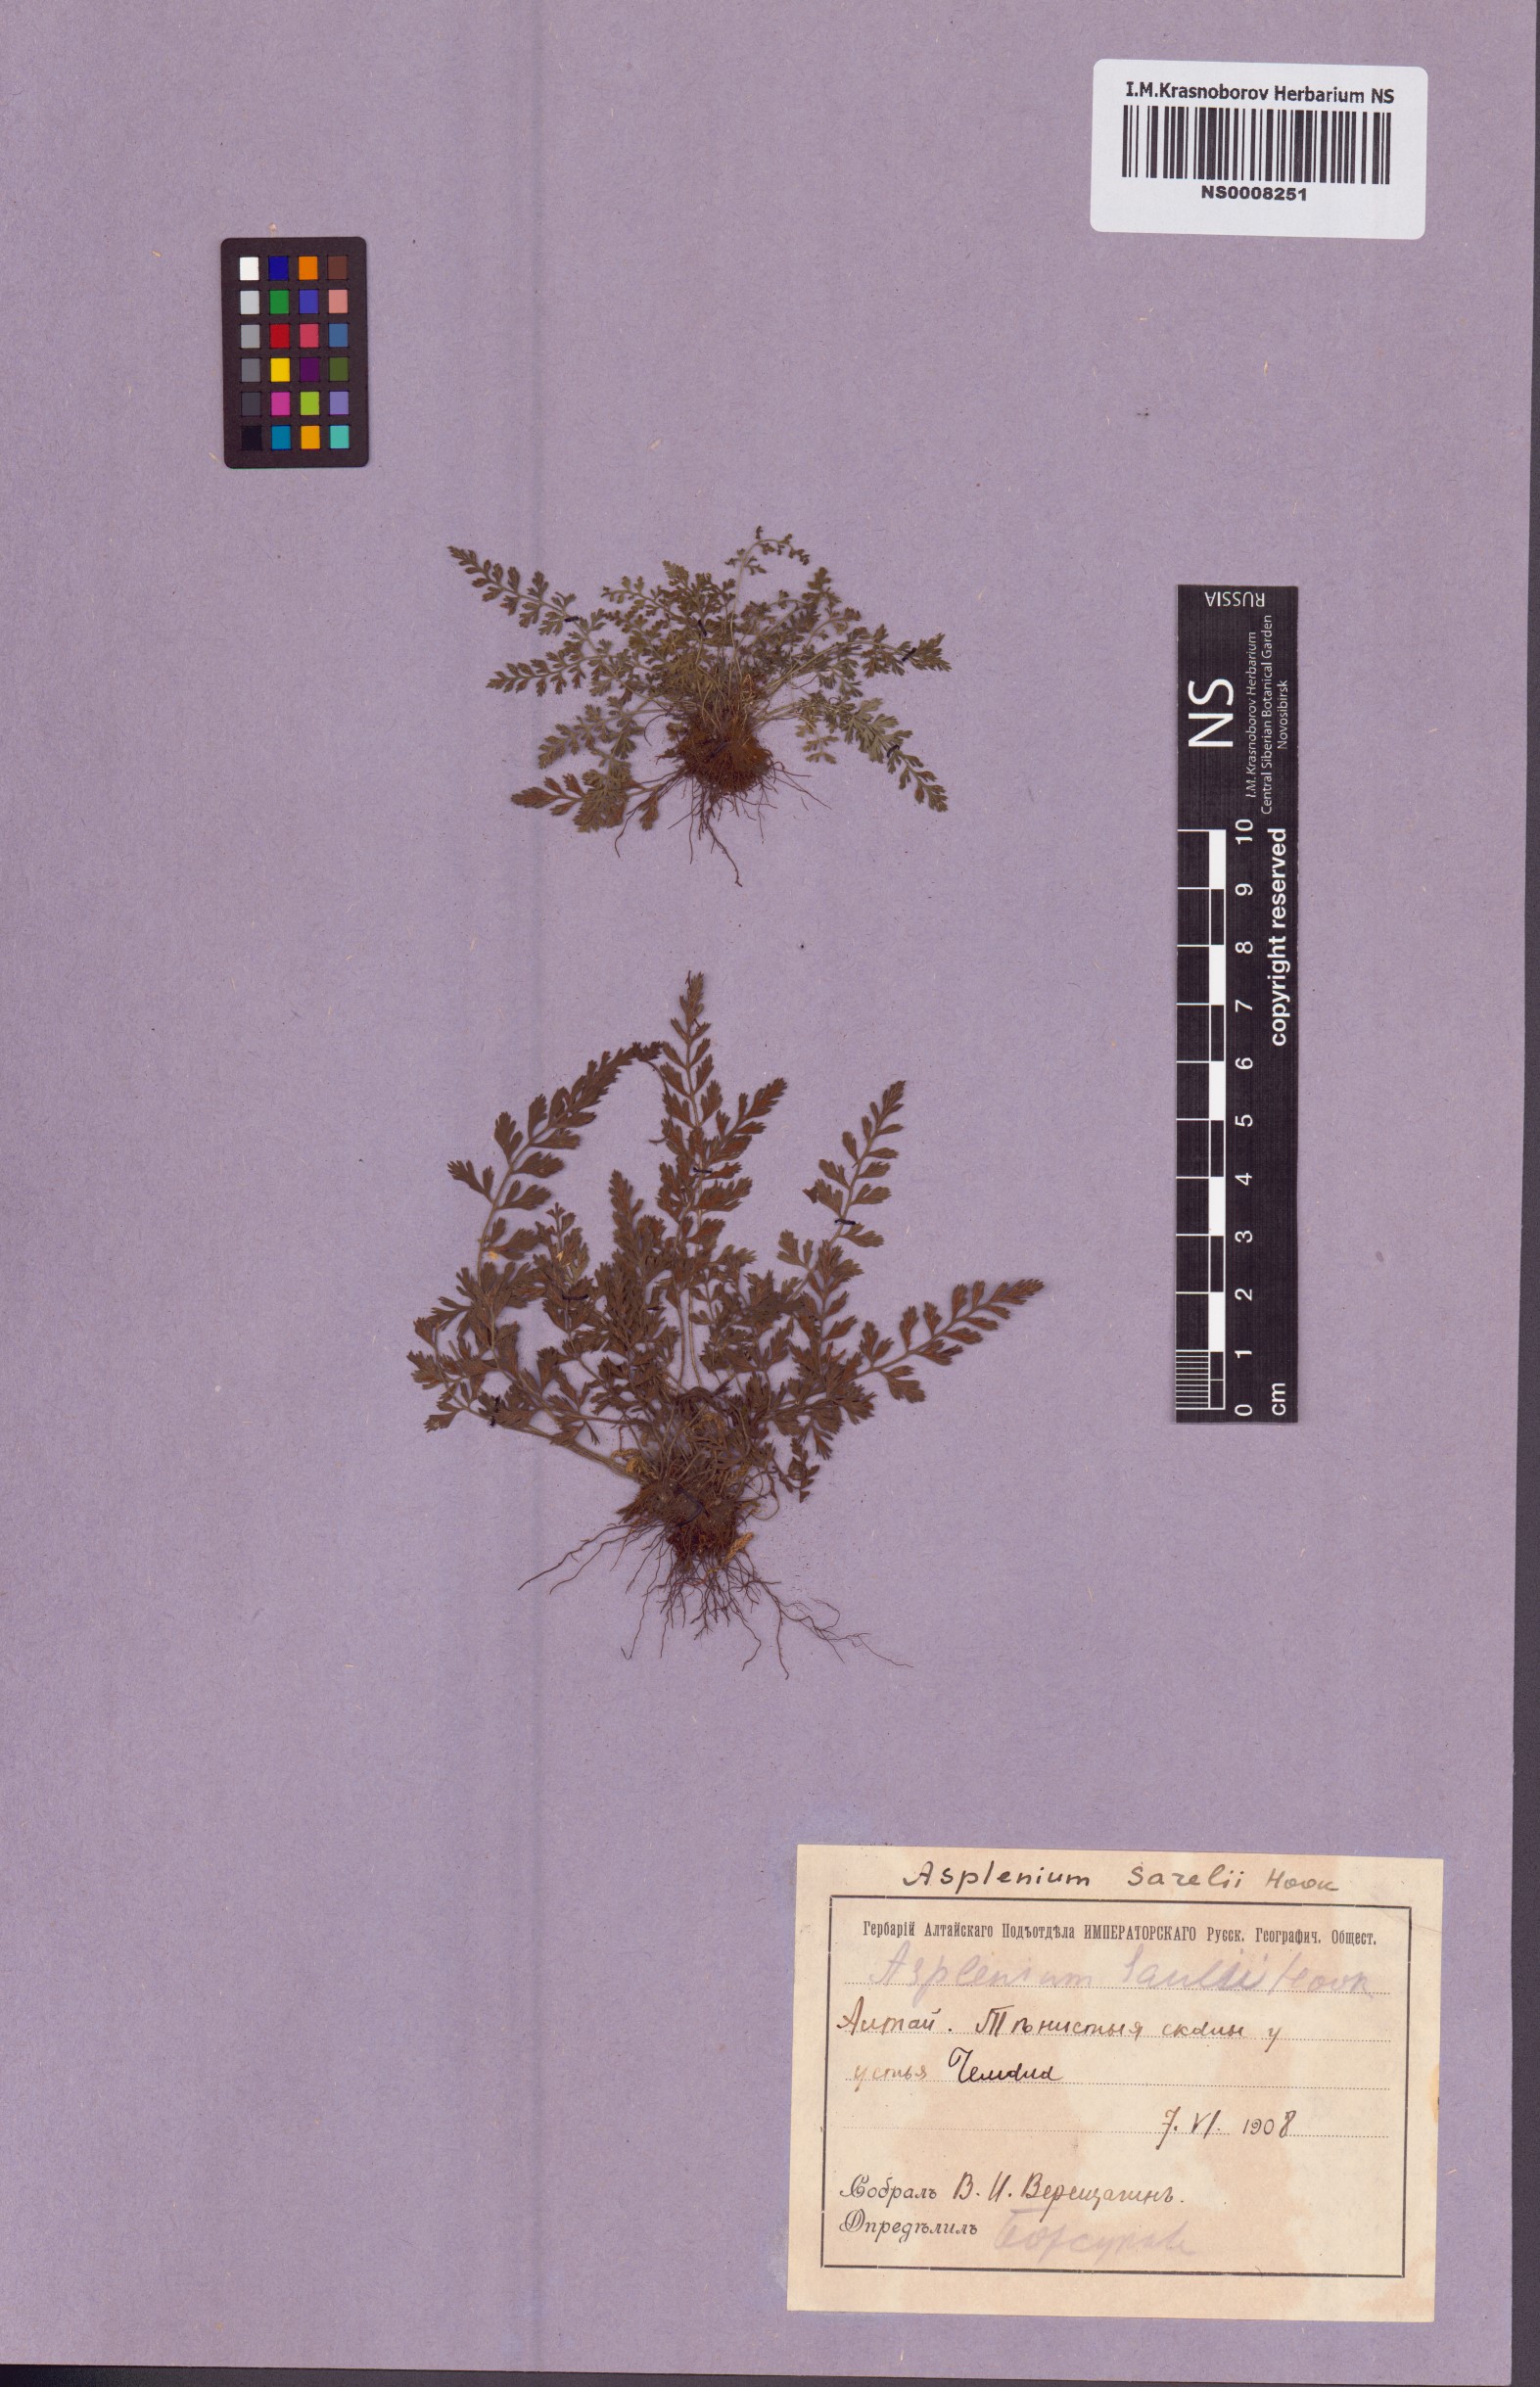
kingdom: Plantae
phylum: Tracheophyta
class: Polypodiopsida
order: Polypodiales
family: Aspleniaceae
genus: Asplenium
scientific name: Asplenium sarelii
